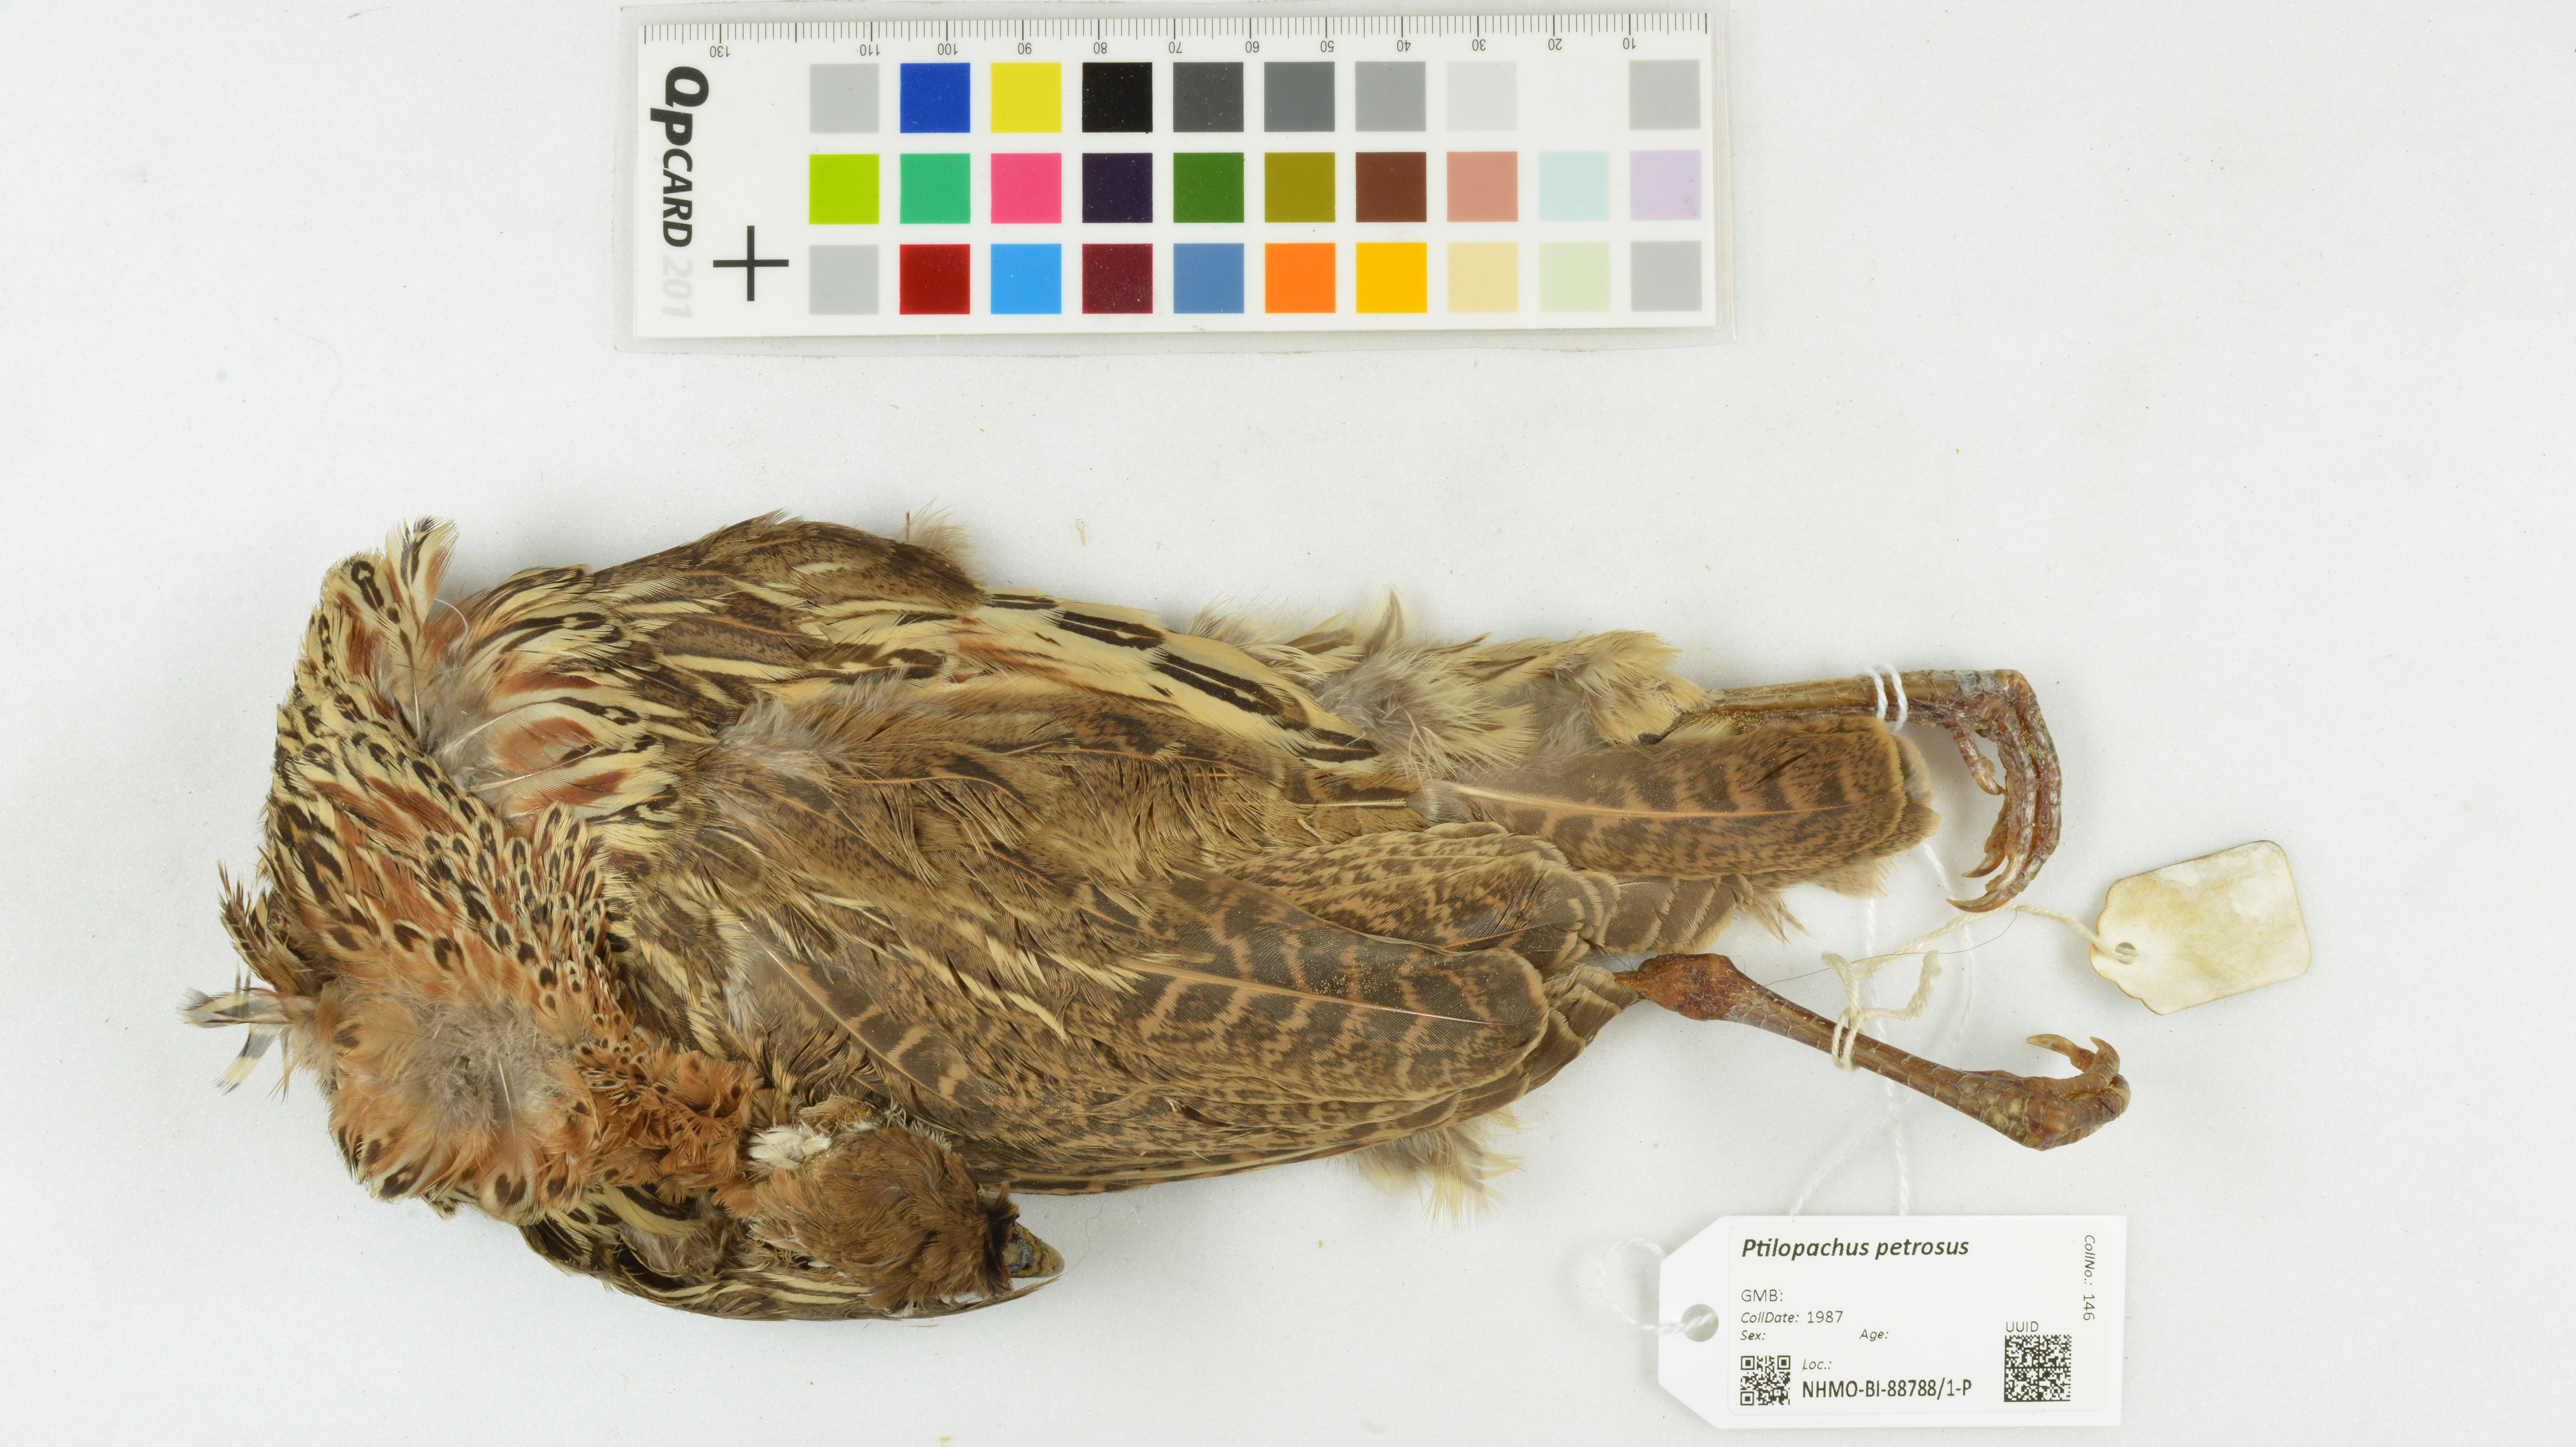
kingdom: Animalia
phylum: Chordata
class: Aves
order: Galliformes
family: Odontophoridae
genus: Ptilopachus
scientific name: Ptilopachus petrosus
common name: Stone partridge
